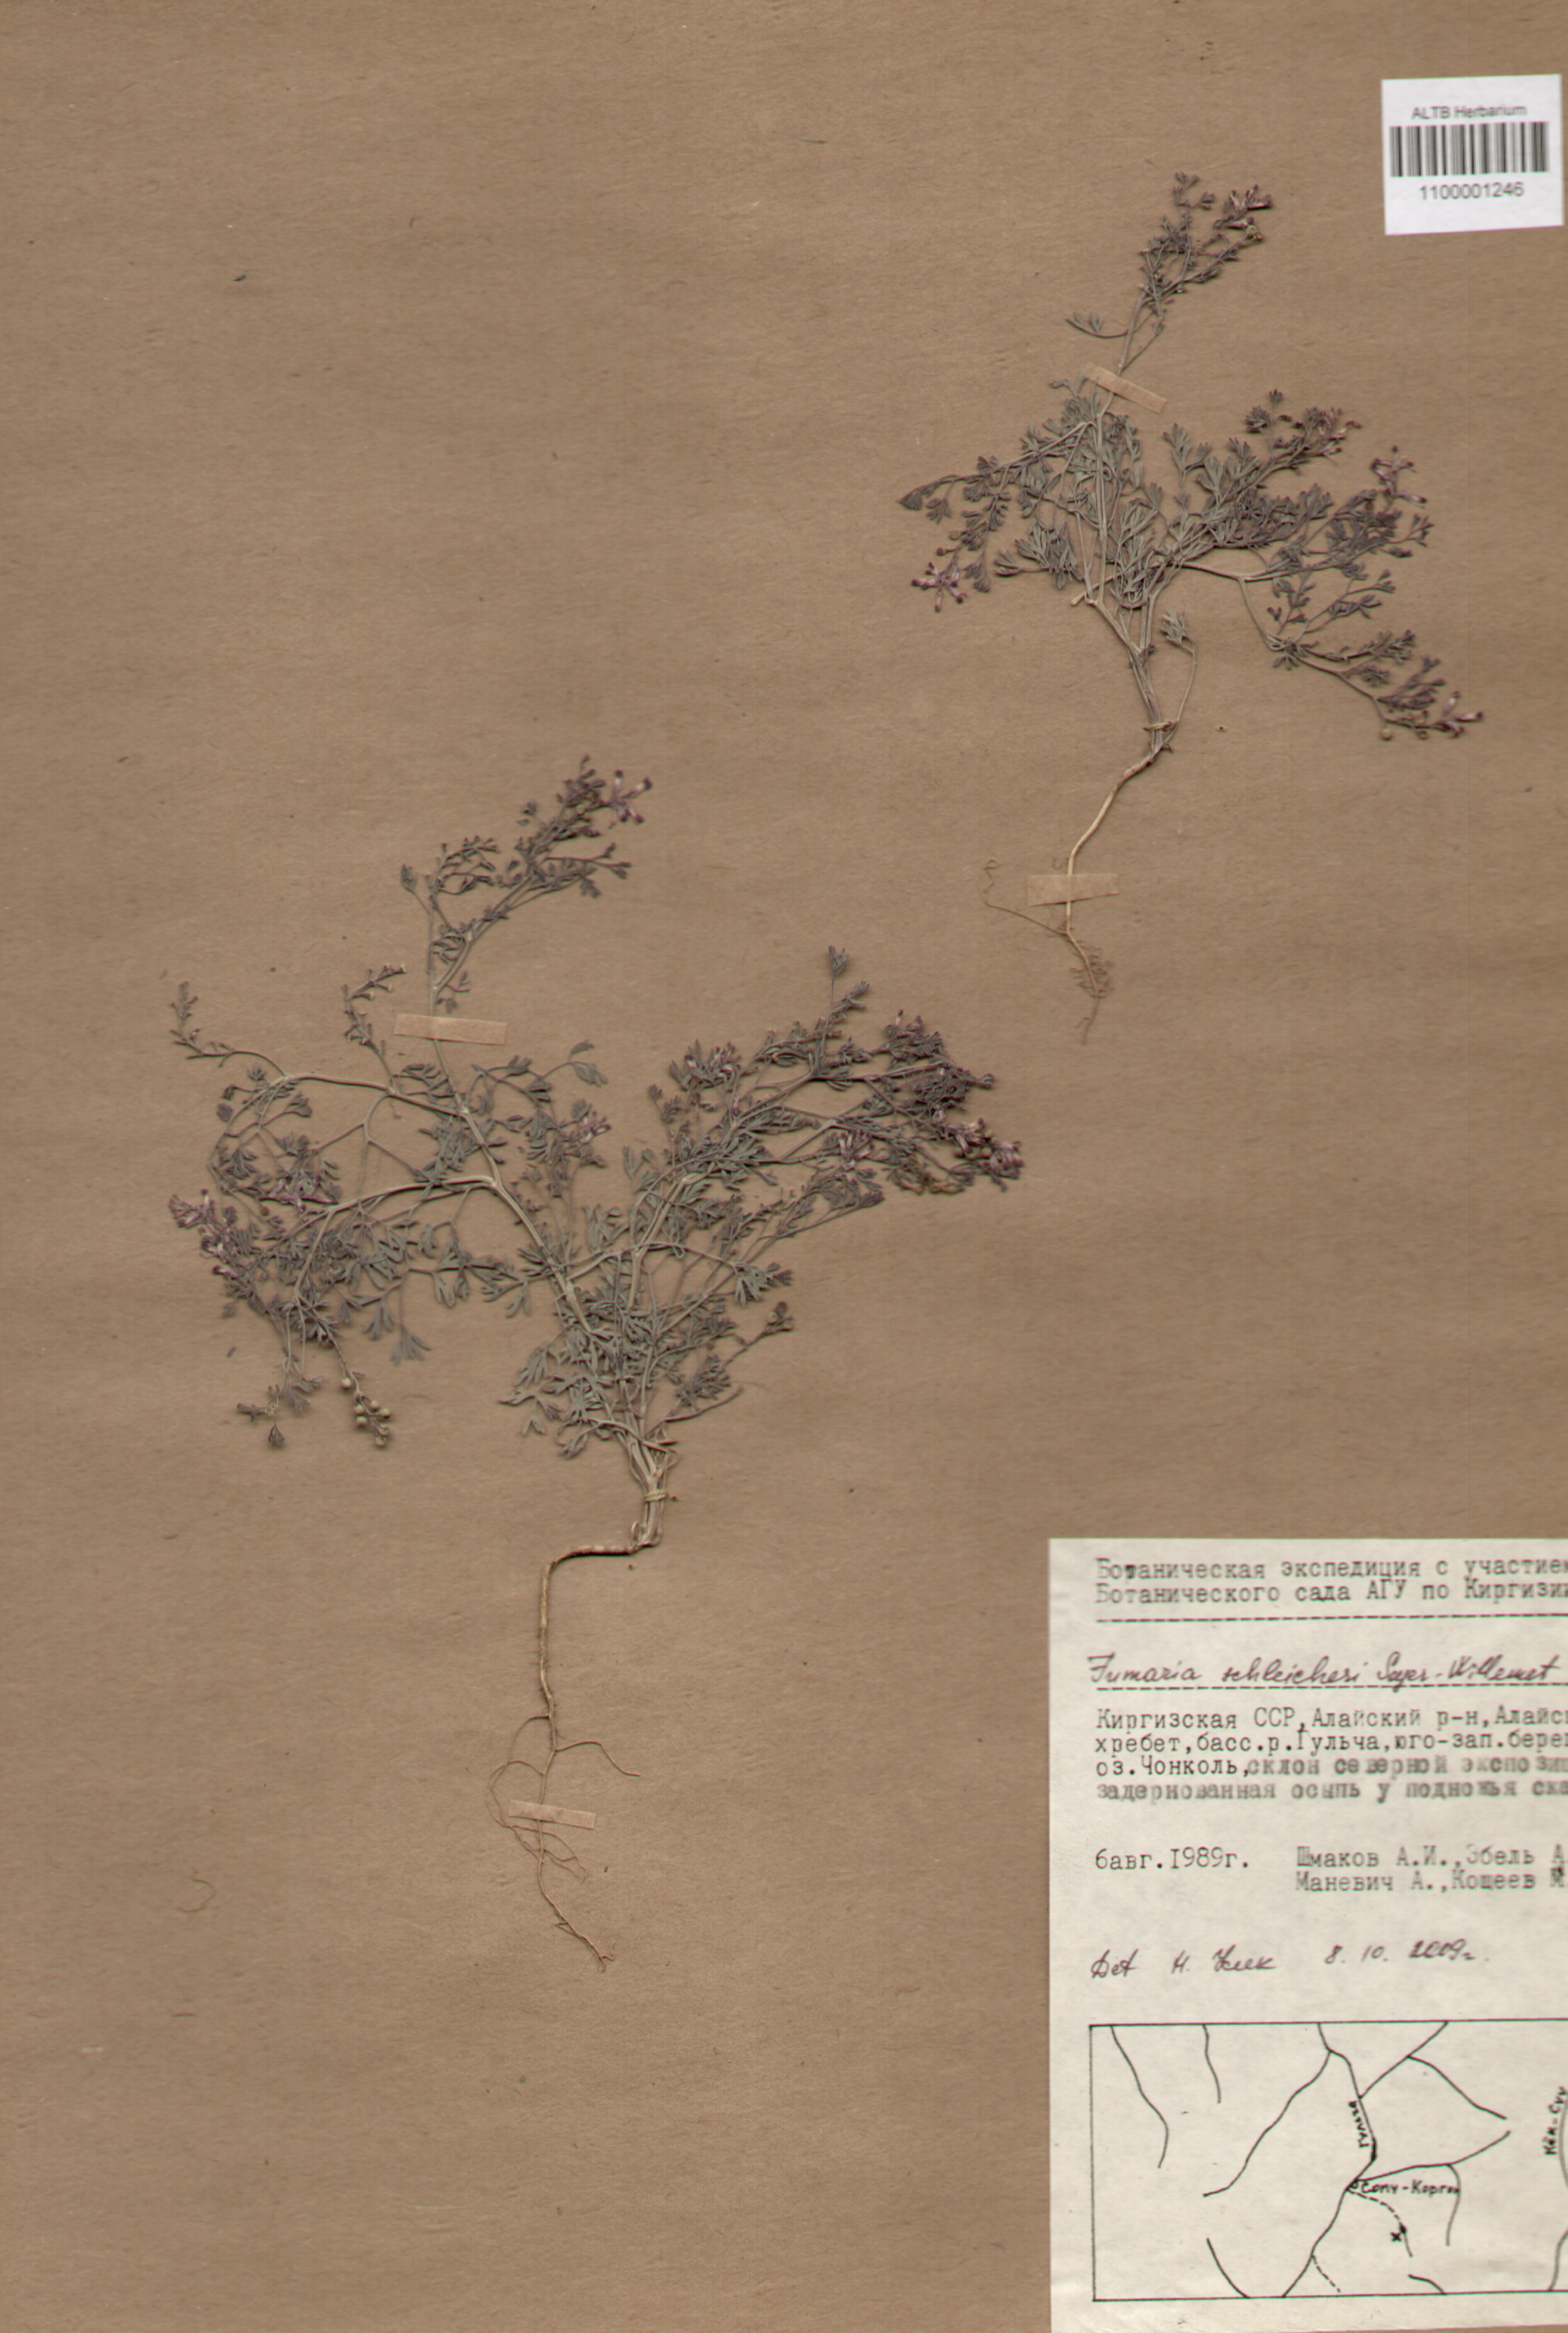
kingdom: Plantae
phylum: Tracheophyta
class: Magnoliopsida
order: Ranunculales
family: Papaveraceae
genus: Fumaria
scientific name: Fumaria schleicheri
